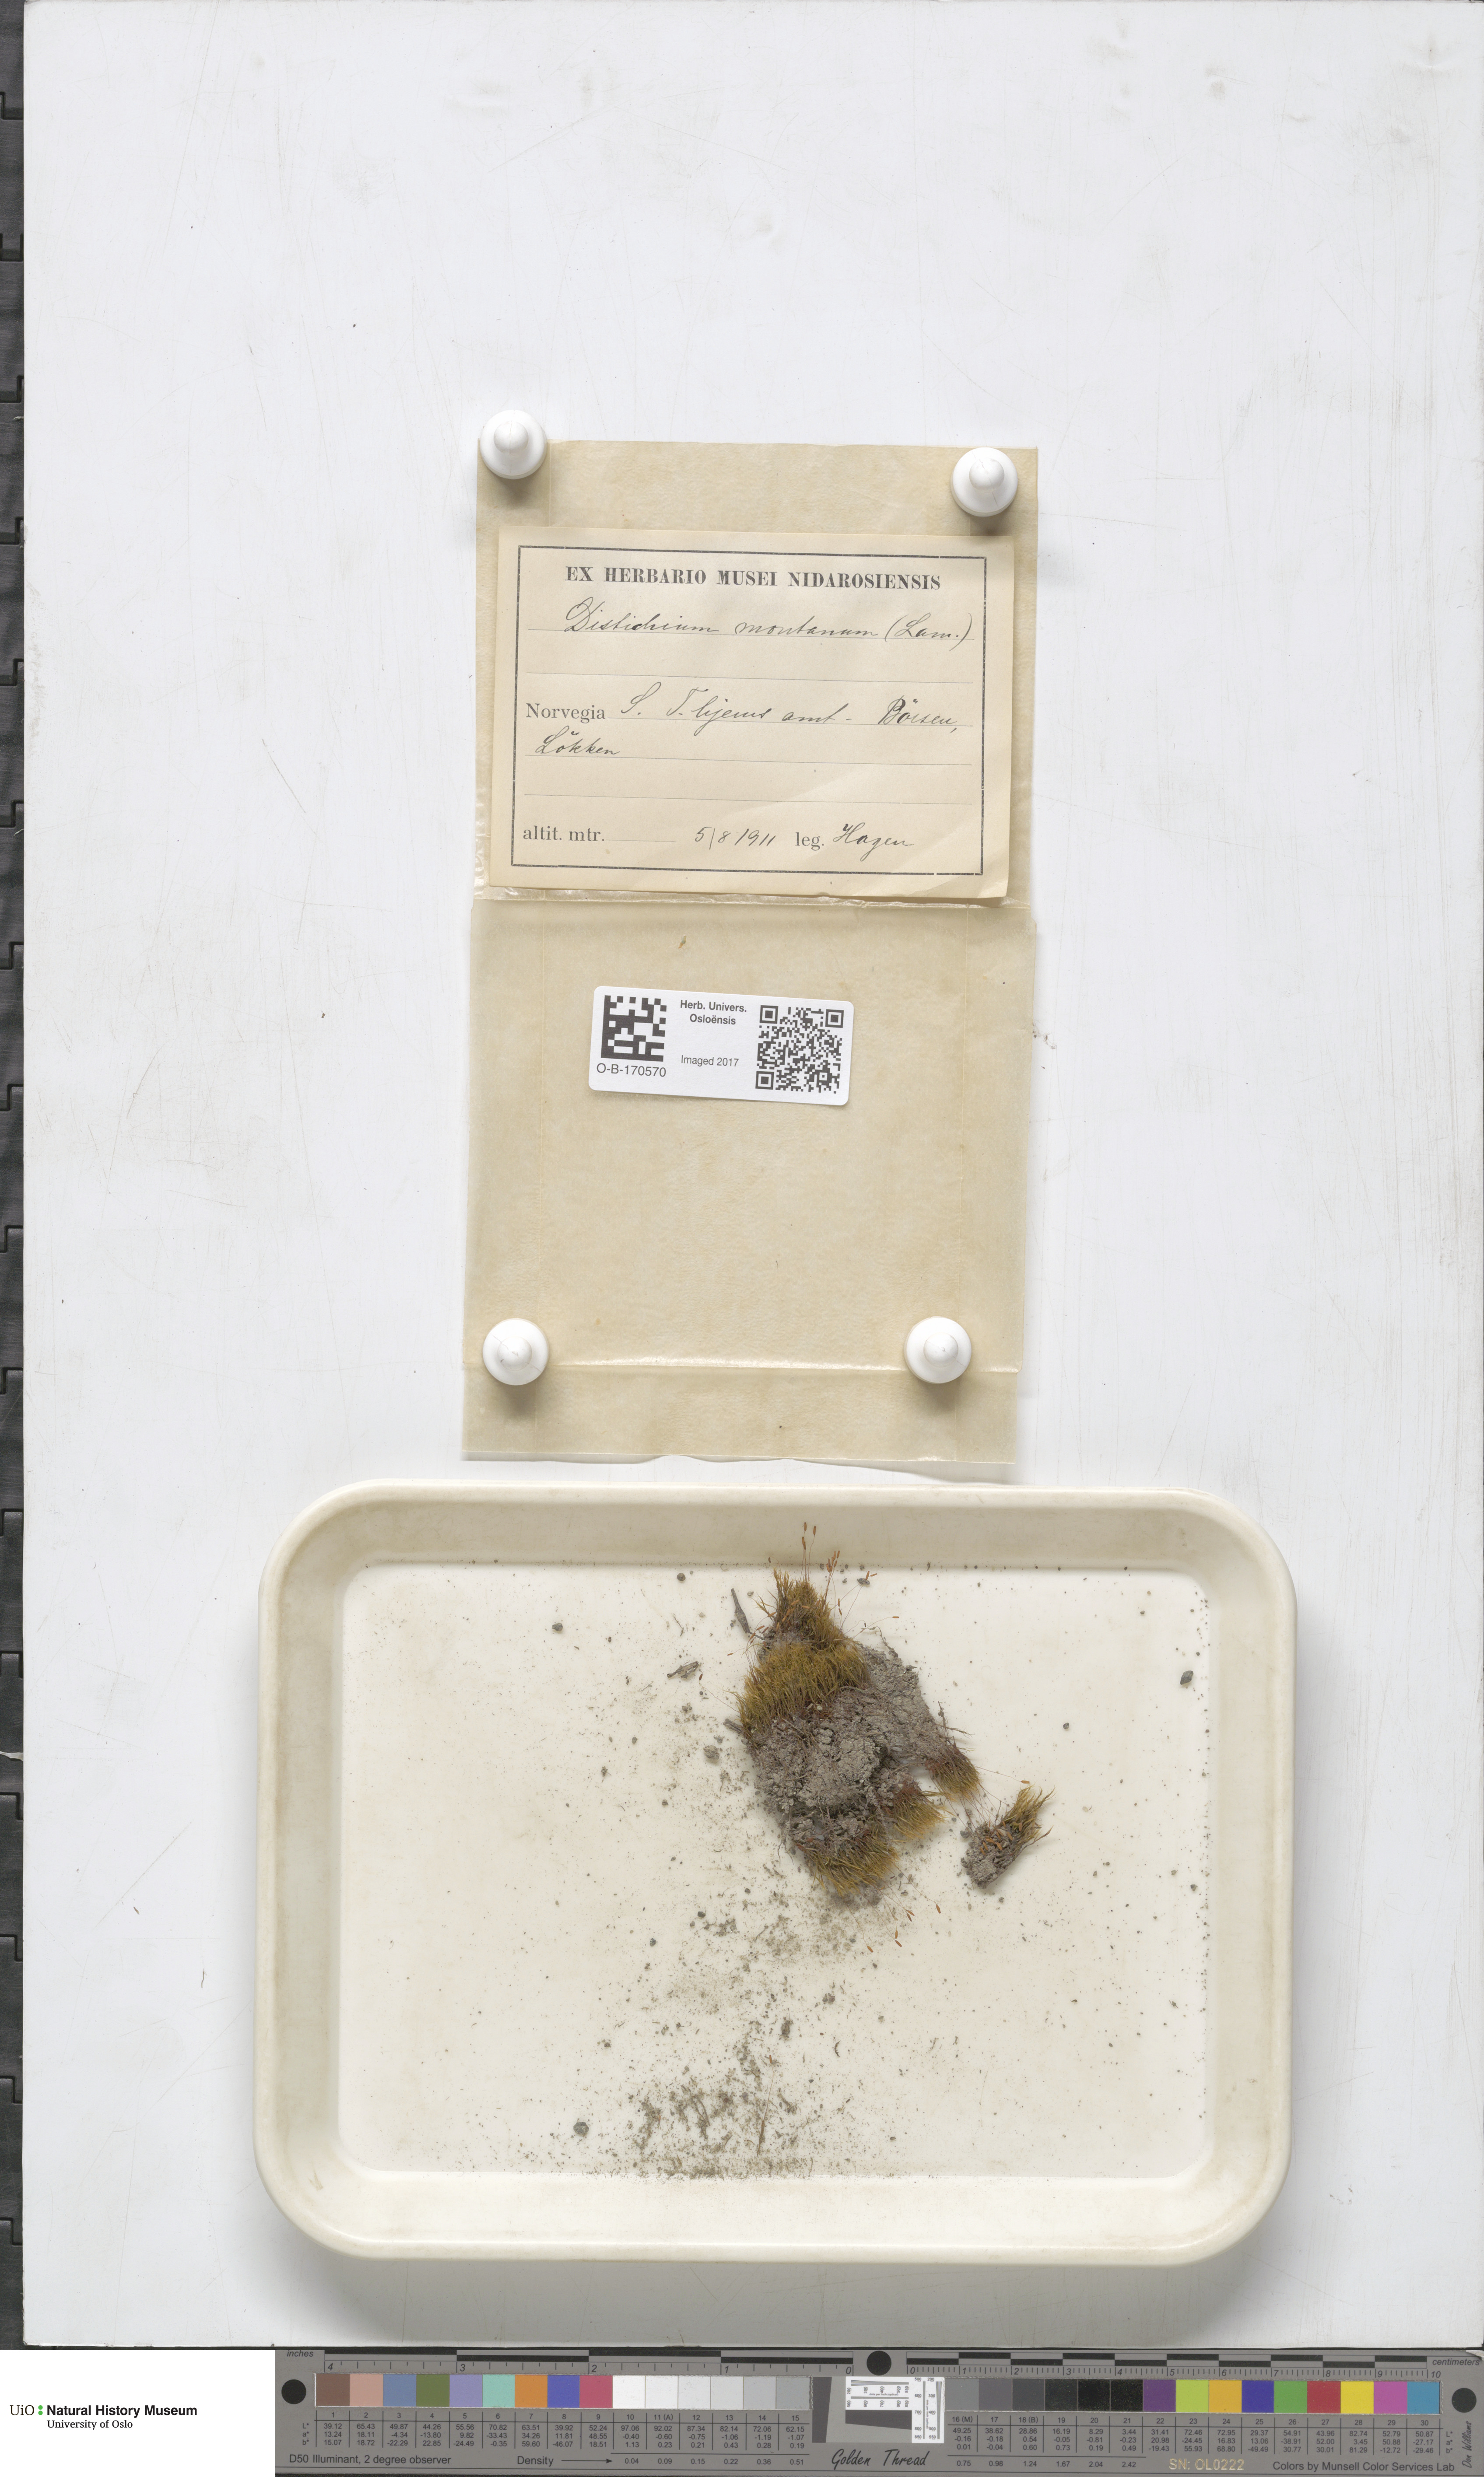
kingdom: Plantae
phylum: Bryophyta
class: Bryopsida
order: Scouleriales
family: Distichiaceae
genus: Distichium
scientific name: Distichium capillaceum
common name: Erect-fruited iris moss
